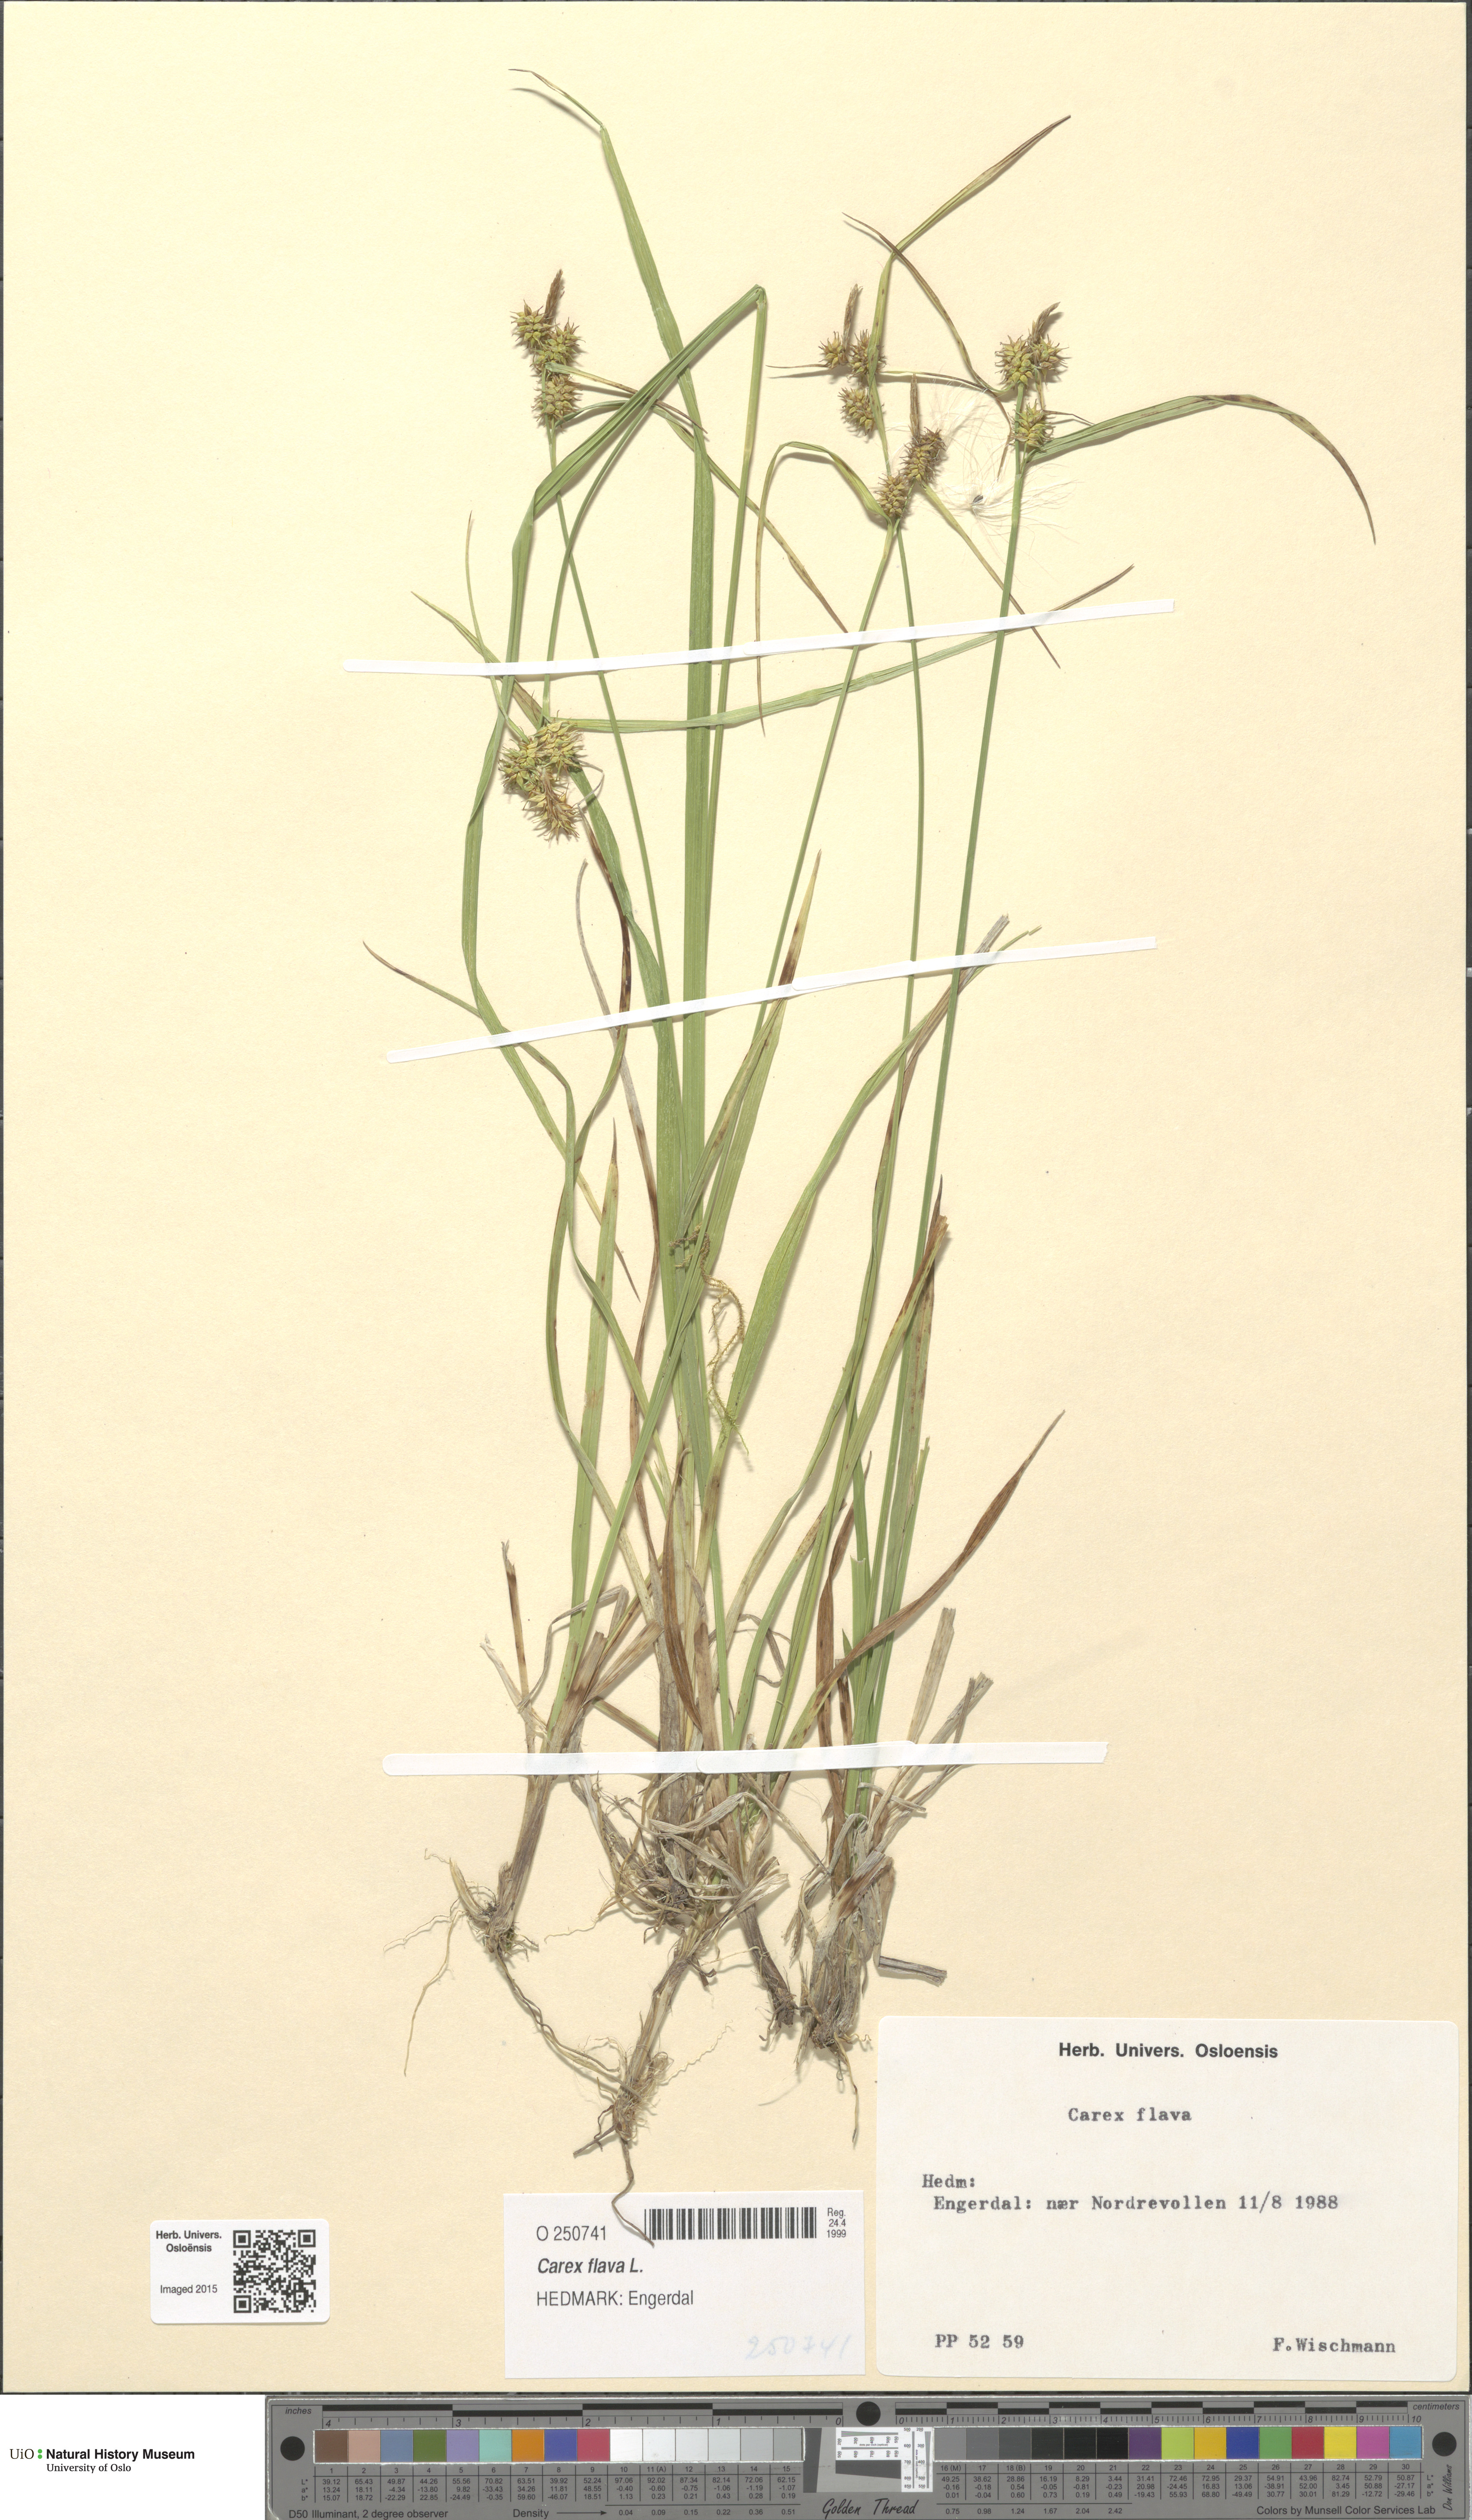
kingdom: Plantae
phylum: Tracheophyta
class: Liliopsida
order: Poales
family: Cyperaceae
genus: Carex
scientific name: Carex flava
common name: Large yellow-sedge
